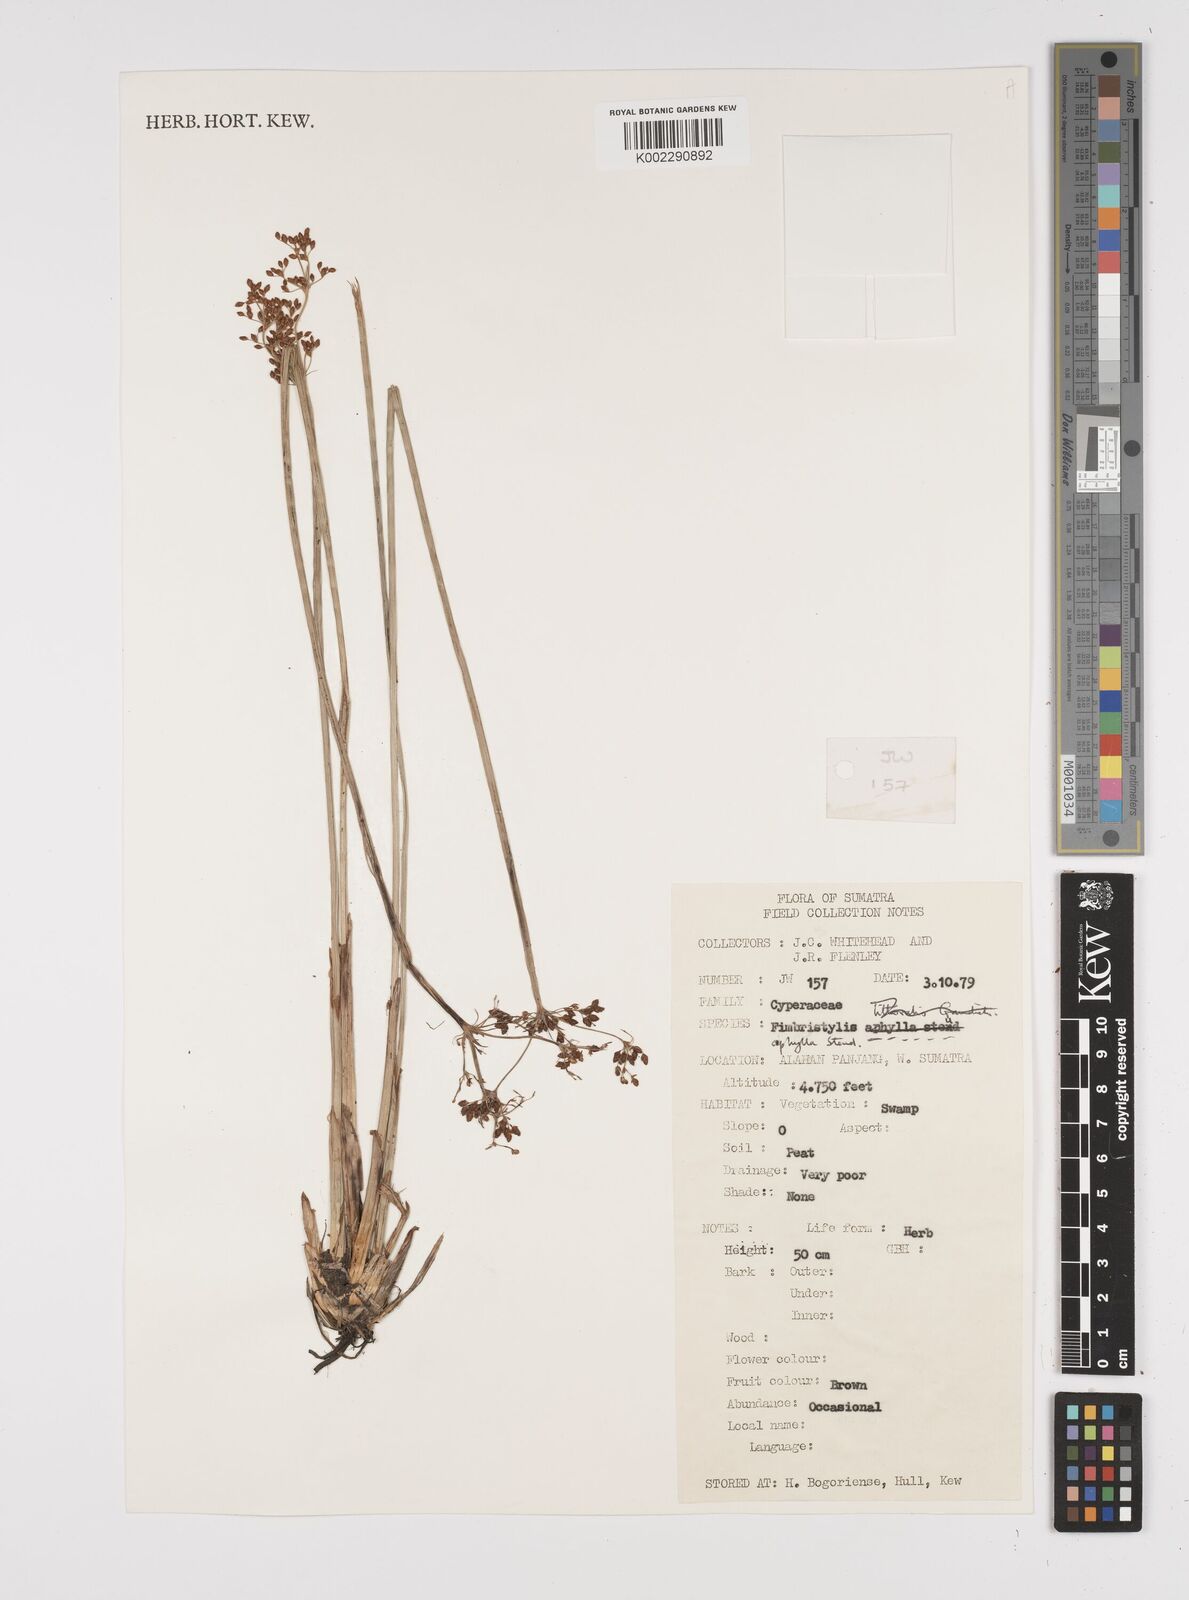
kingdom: Plantae
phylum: Tracheophyta
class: Liliopsida
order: Poales
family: Cyperaceae
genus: Fimbristylis
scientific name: Fimbristylis aphylla
